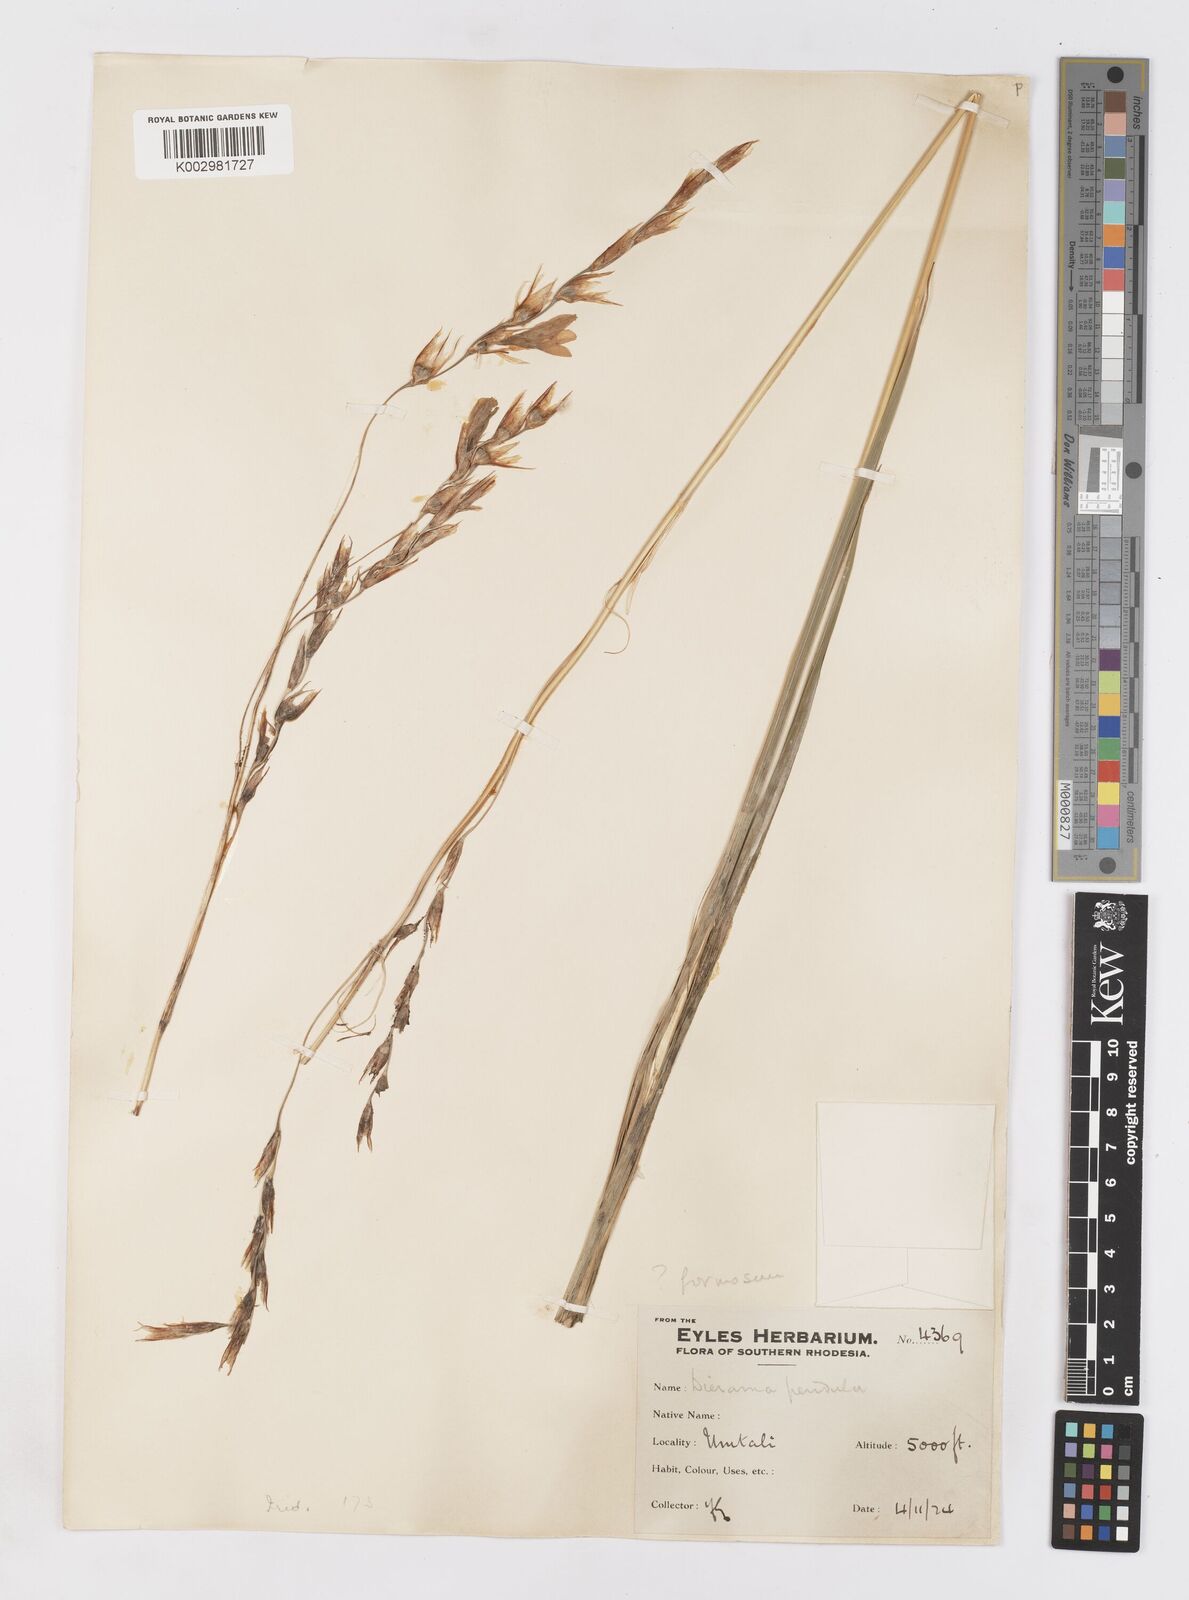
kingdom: Plantae
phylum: Tracheophyta
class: Liliopsida
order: Asparagales
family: Iridaceae
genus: Dierama
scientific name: Dierama
